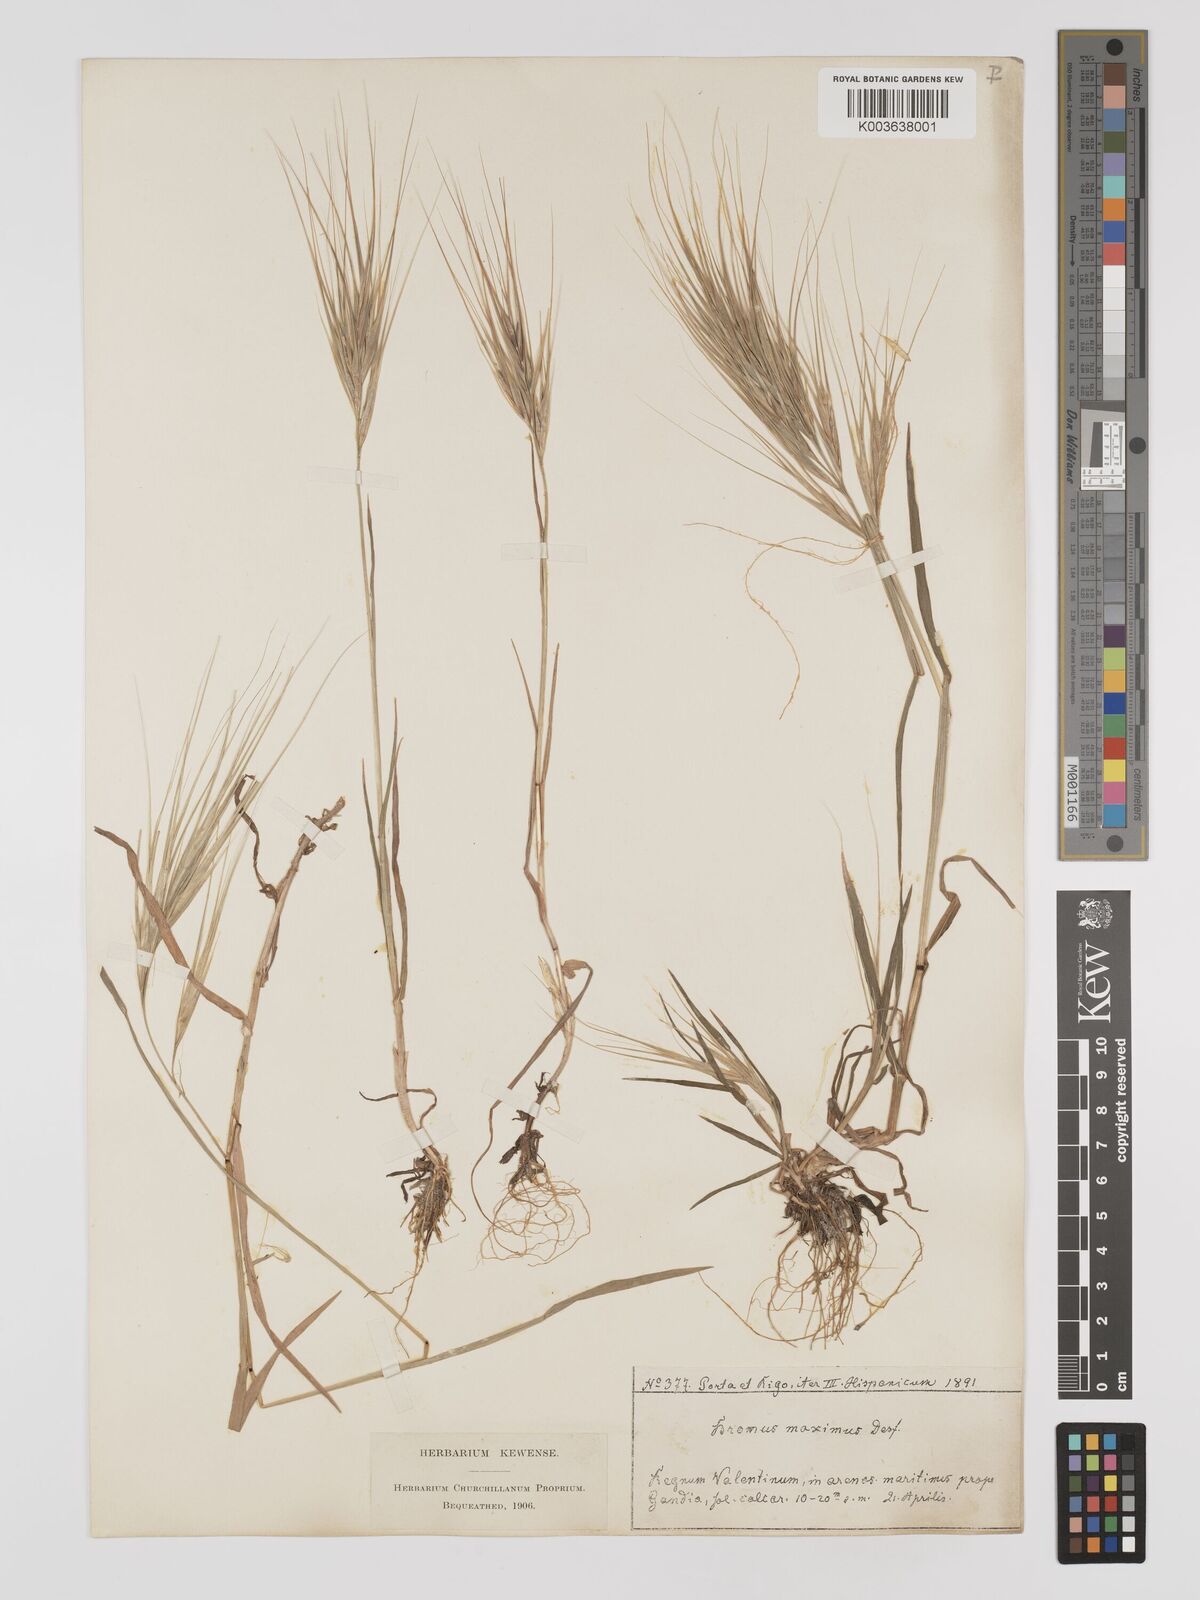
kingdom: Plantae
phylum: Tracheophyta
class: Liliopsida
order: Poales
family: Poaceae
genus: Bromus
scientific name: Bromus
